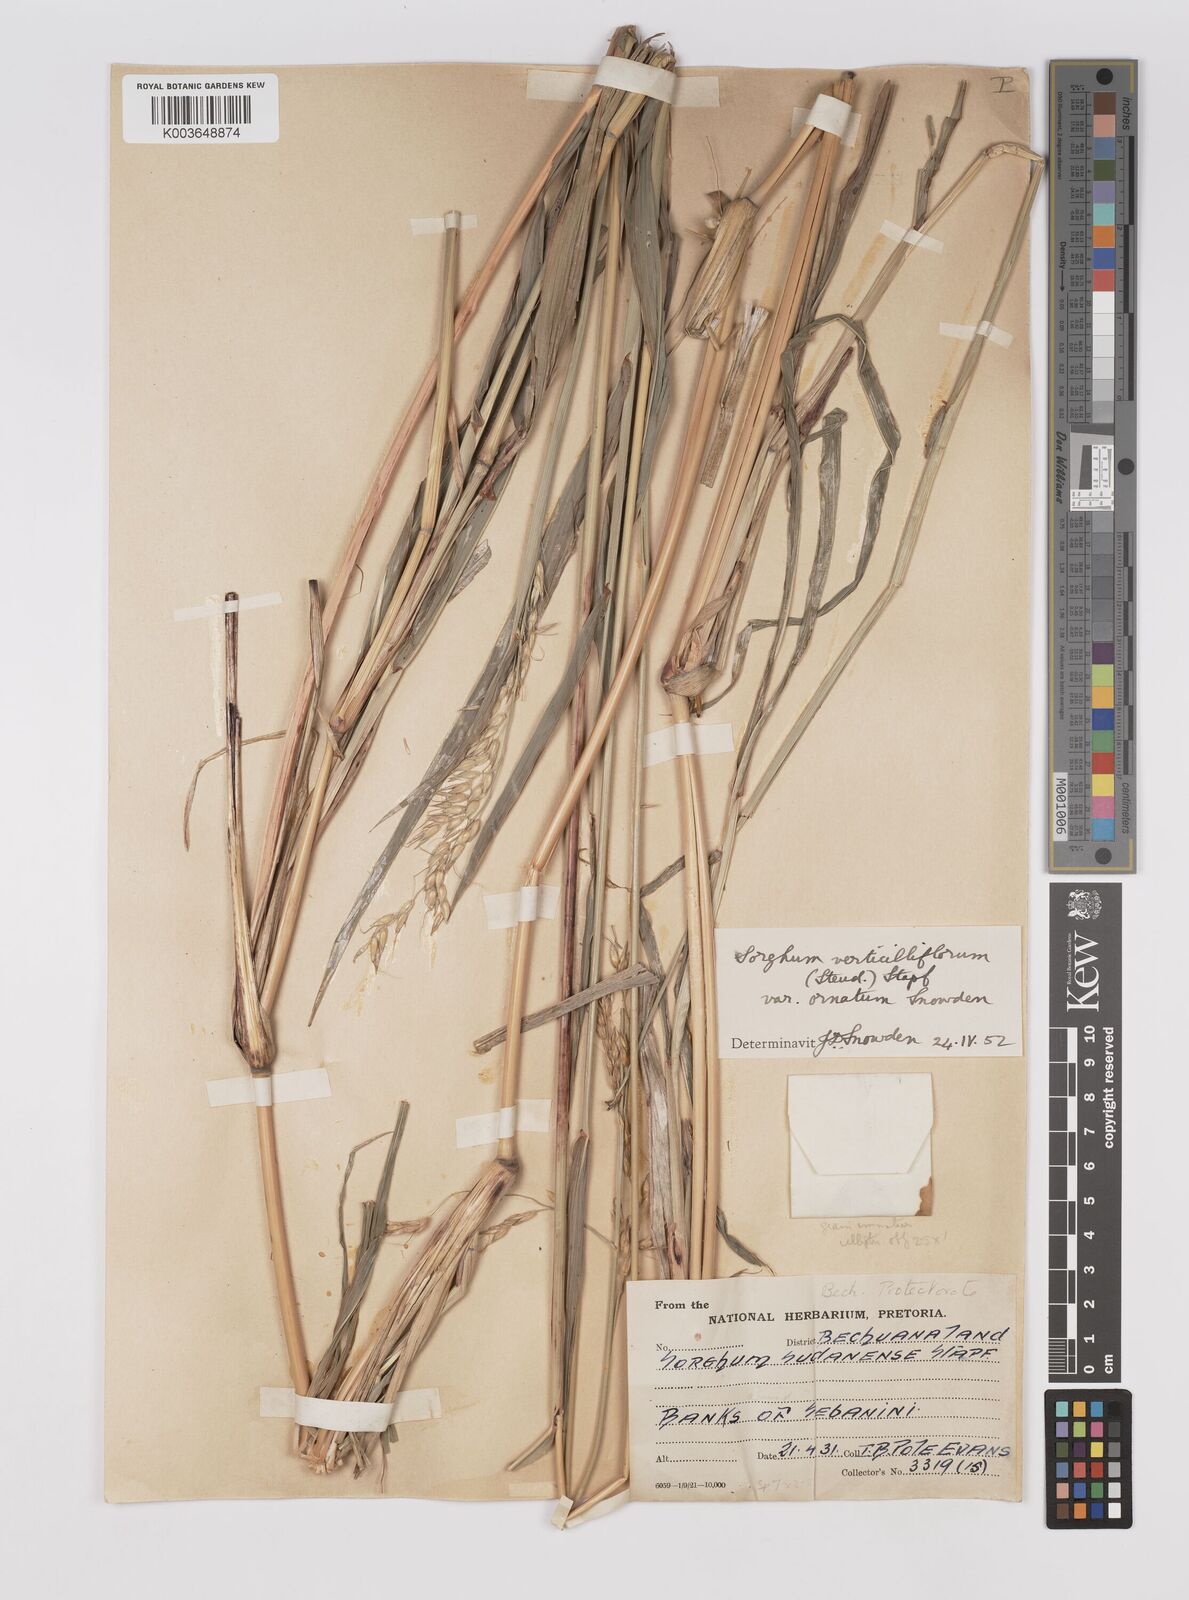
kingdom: Plantae
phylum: Tracheophyta
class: Liliopsida
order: Poales
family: Poaceae
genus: Sorghum
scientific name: Sorghum arundinaceum
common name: Sorghum
